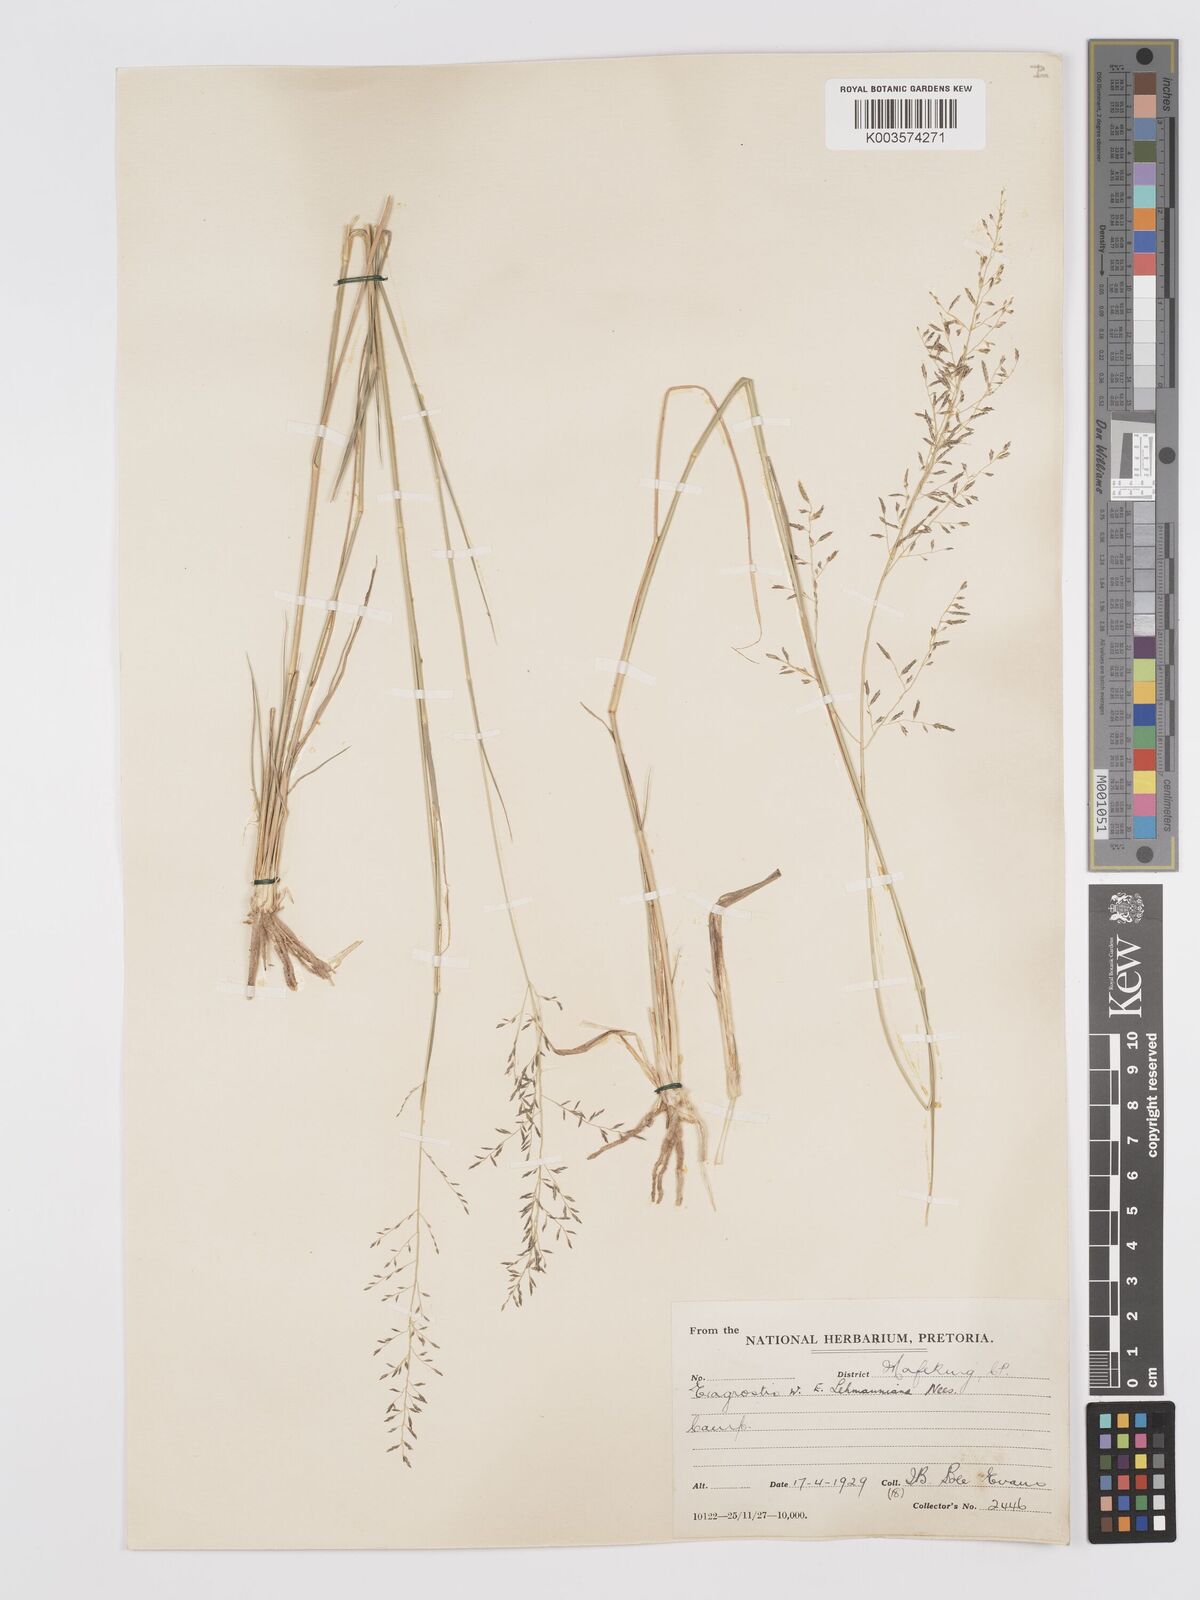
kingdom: Plantae
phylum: Tracheophyta
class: Liliopsida
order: Poales
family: Poaceae
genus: Eragrostis
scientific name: Eragrostis micrantha
